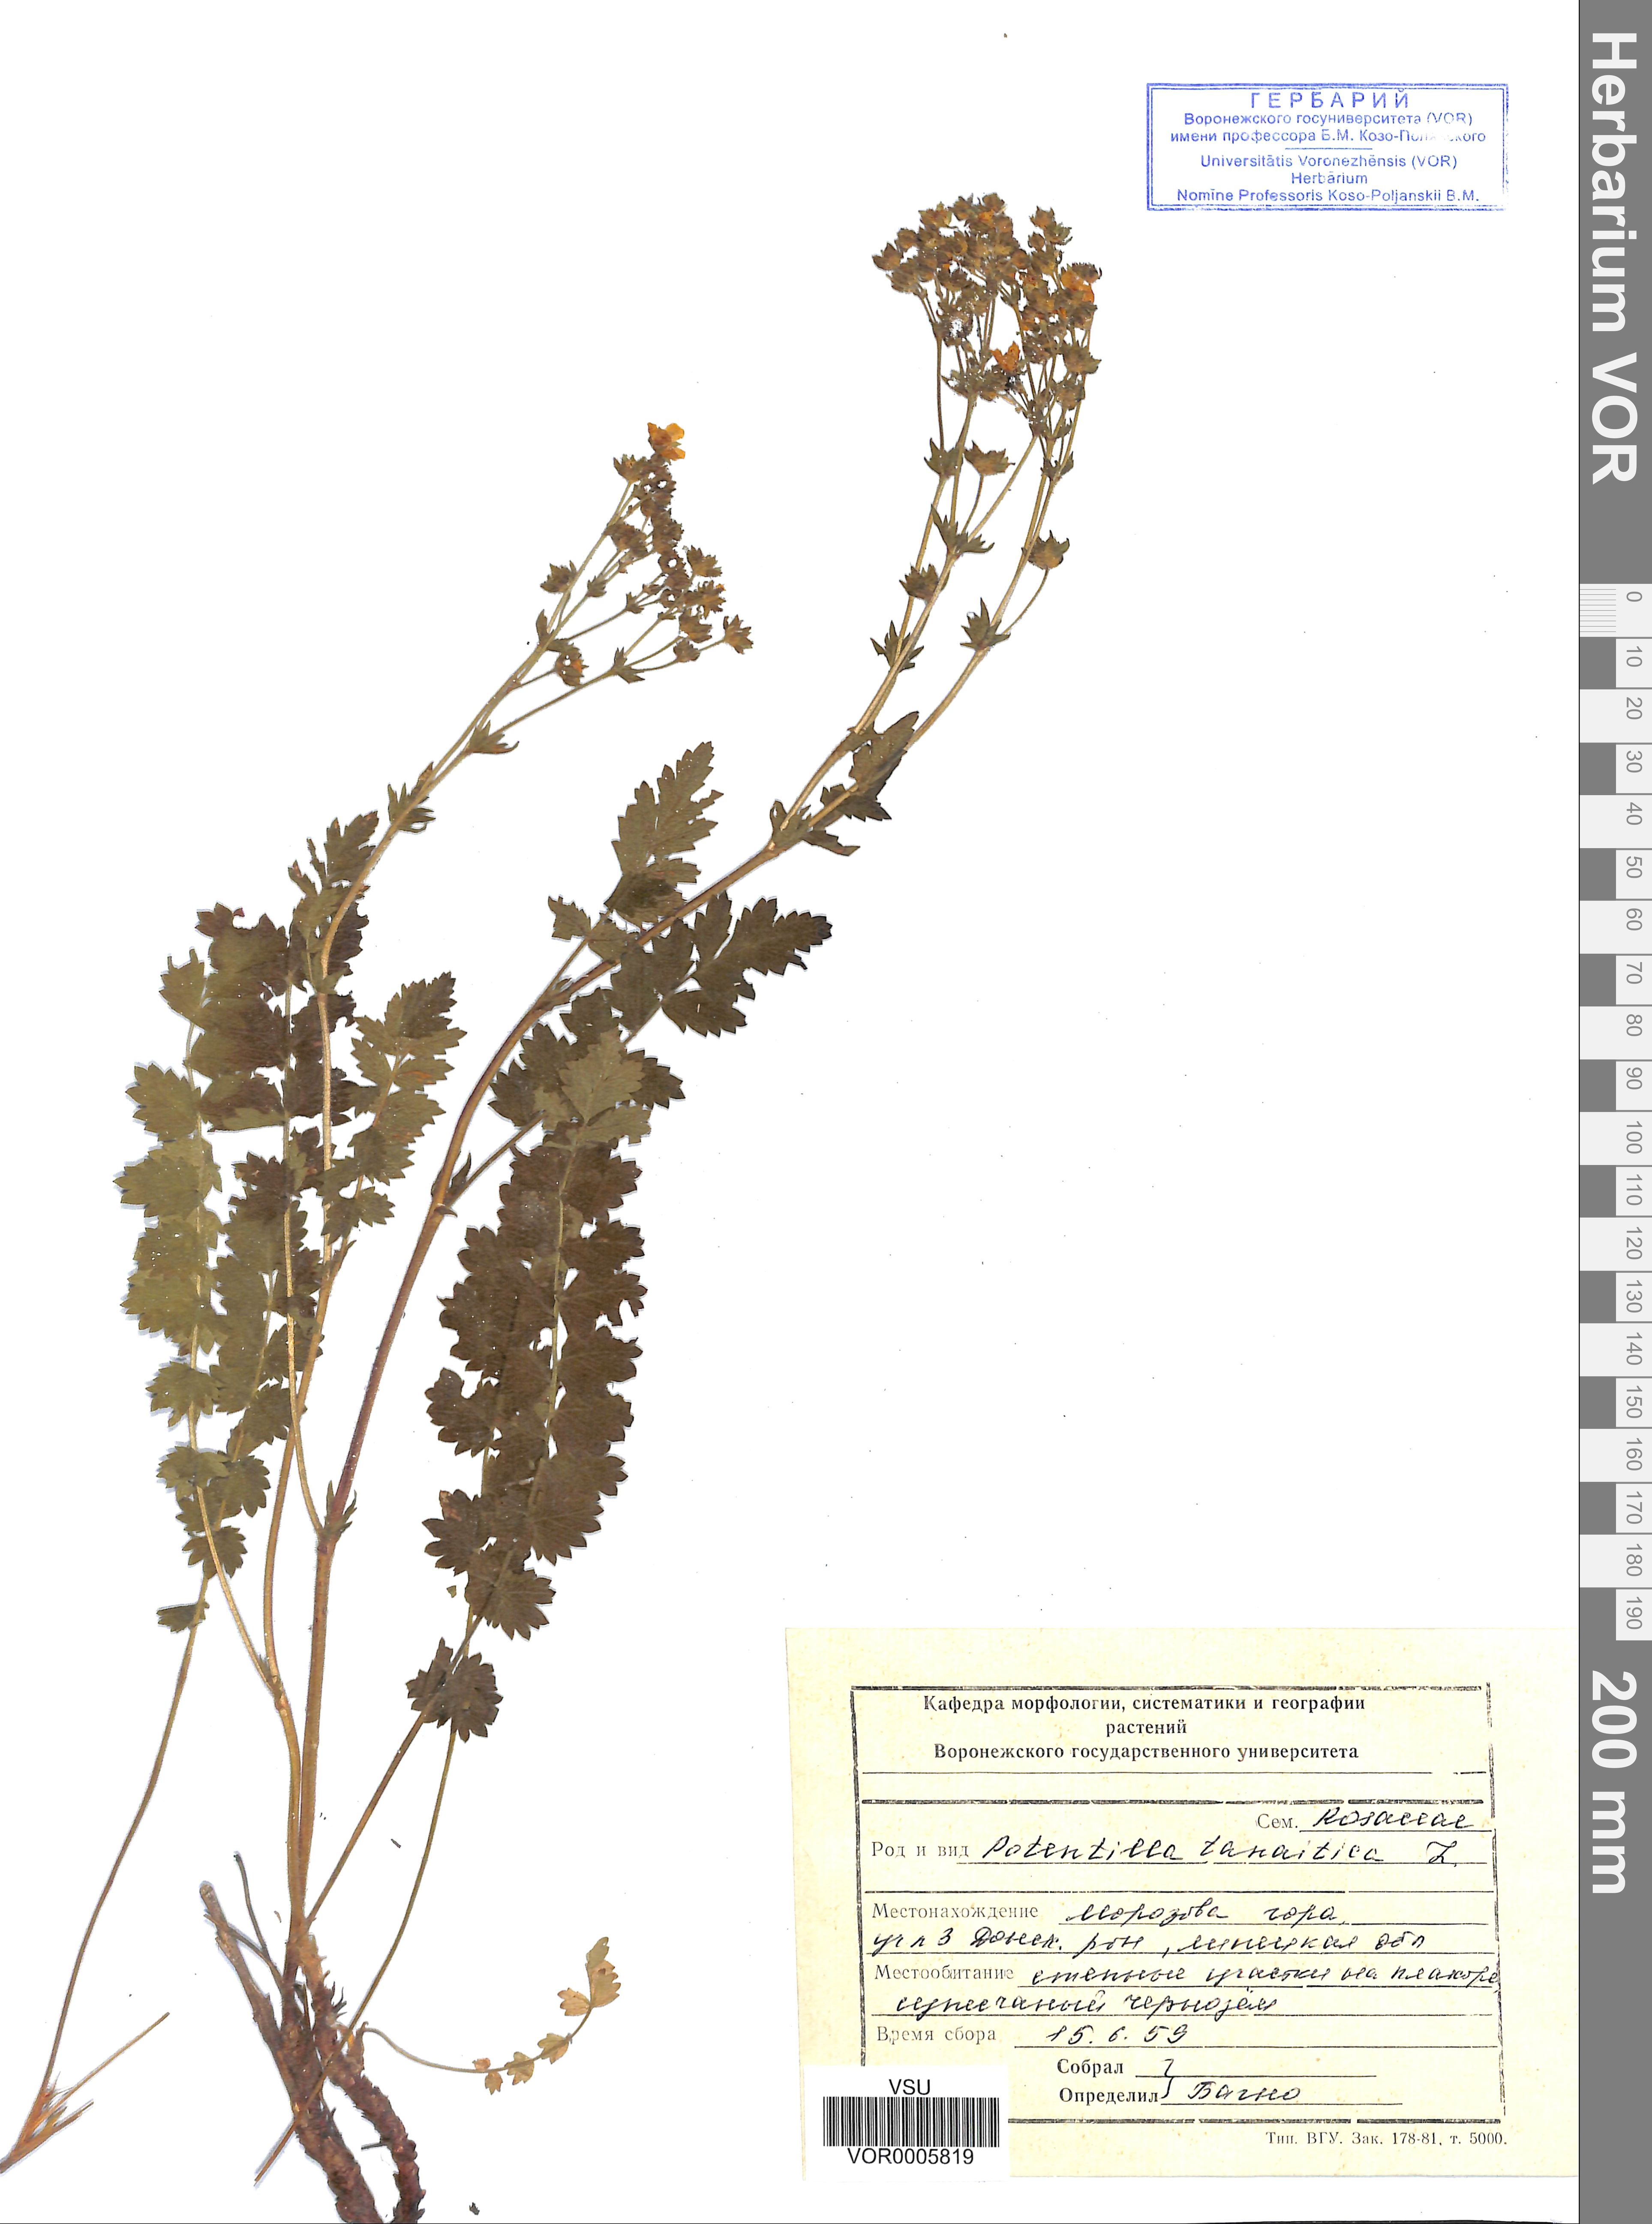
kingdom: Plantae
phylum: Tracheophyta
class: Magnoliopsida
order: Rosales
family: Rosaceae
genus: Potentilla
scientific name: Potentilla tanaitica
